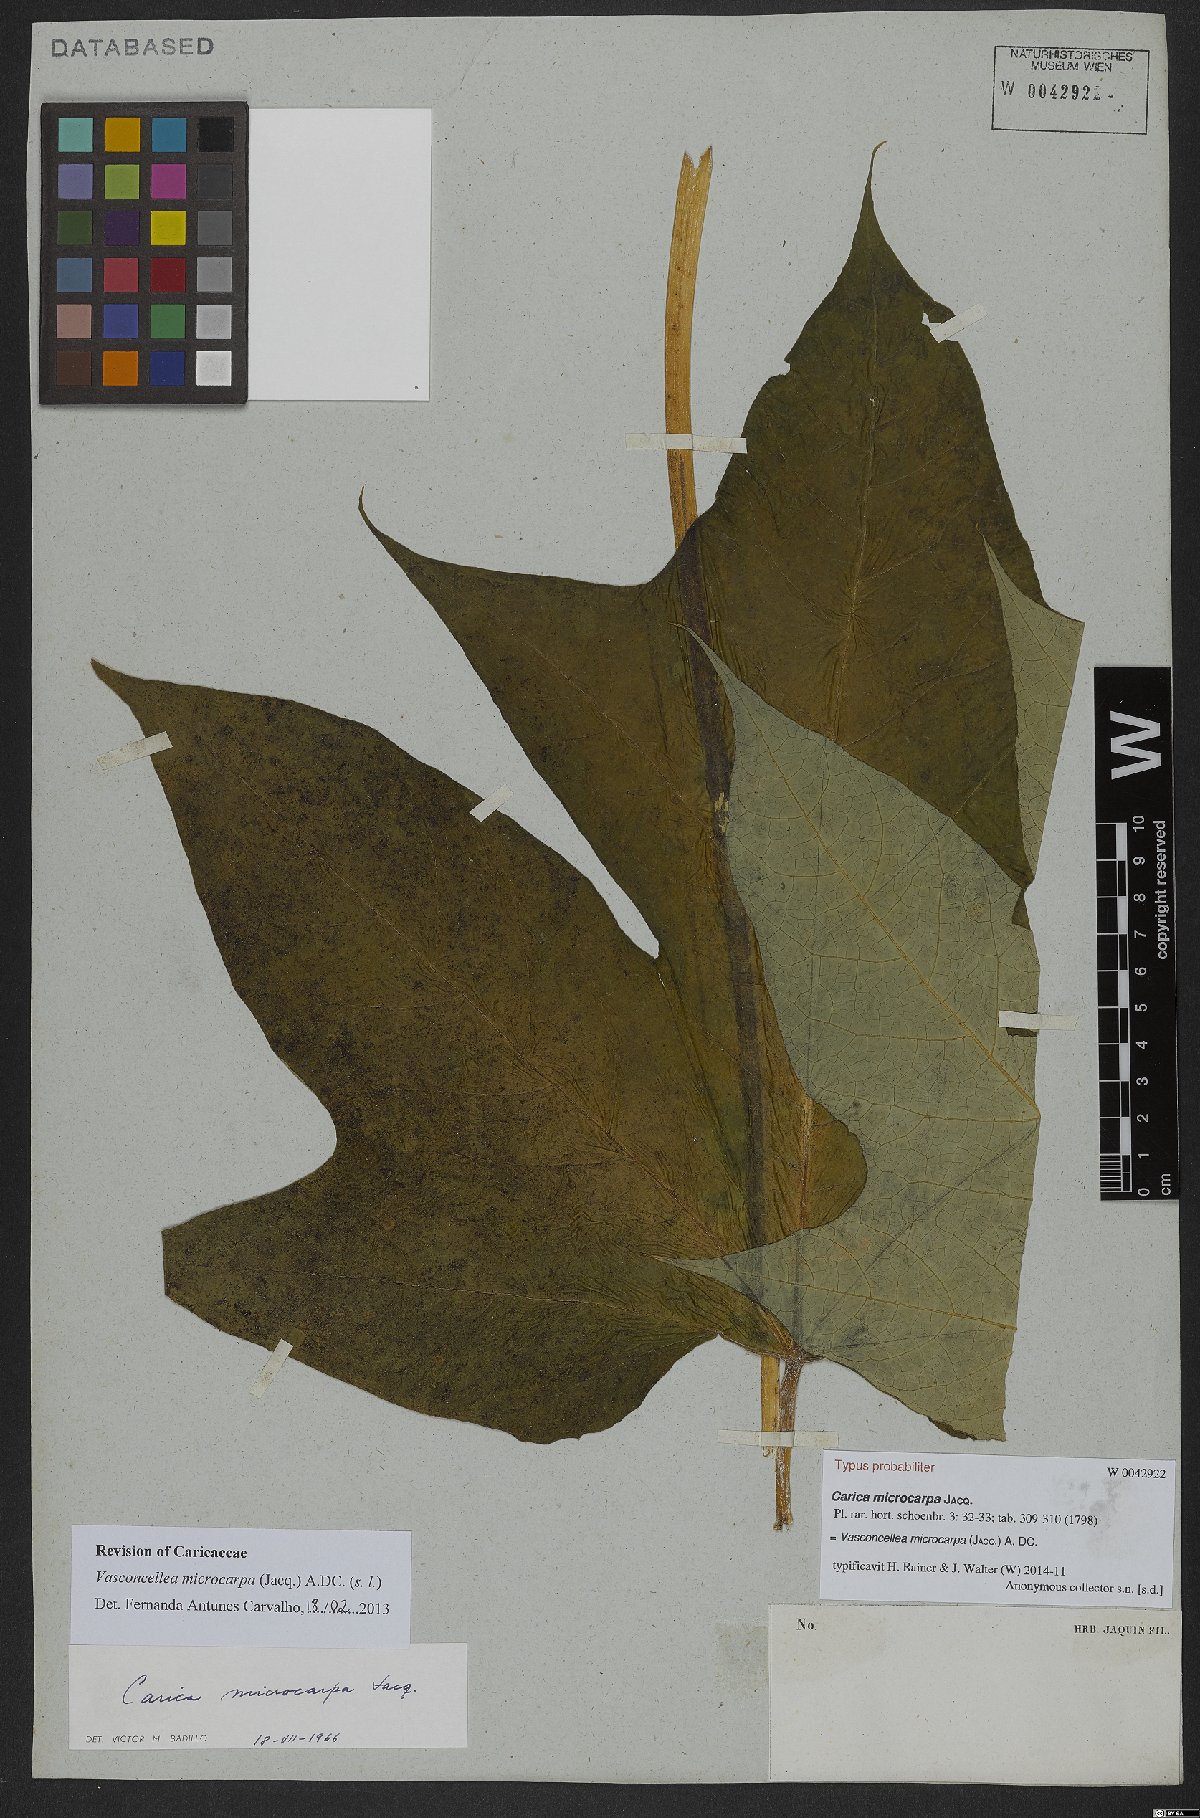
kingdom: Plantae
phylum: Tracheophyta
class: Magnoliopsida
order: Brassicales
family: Caricaceae
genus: Vasconcellea
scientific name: Vasconcellea microcarpa
